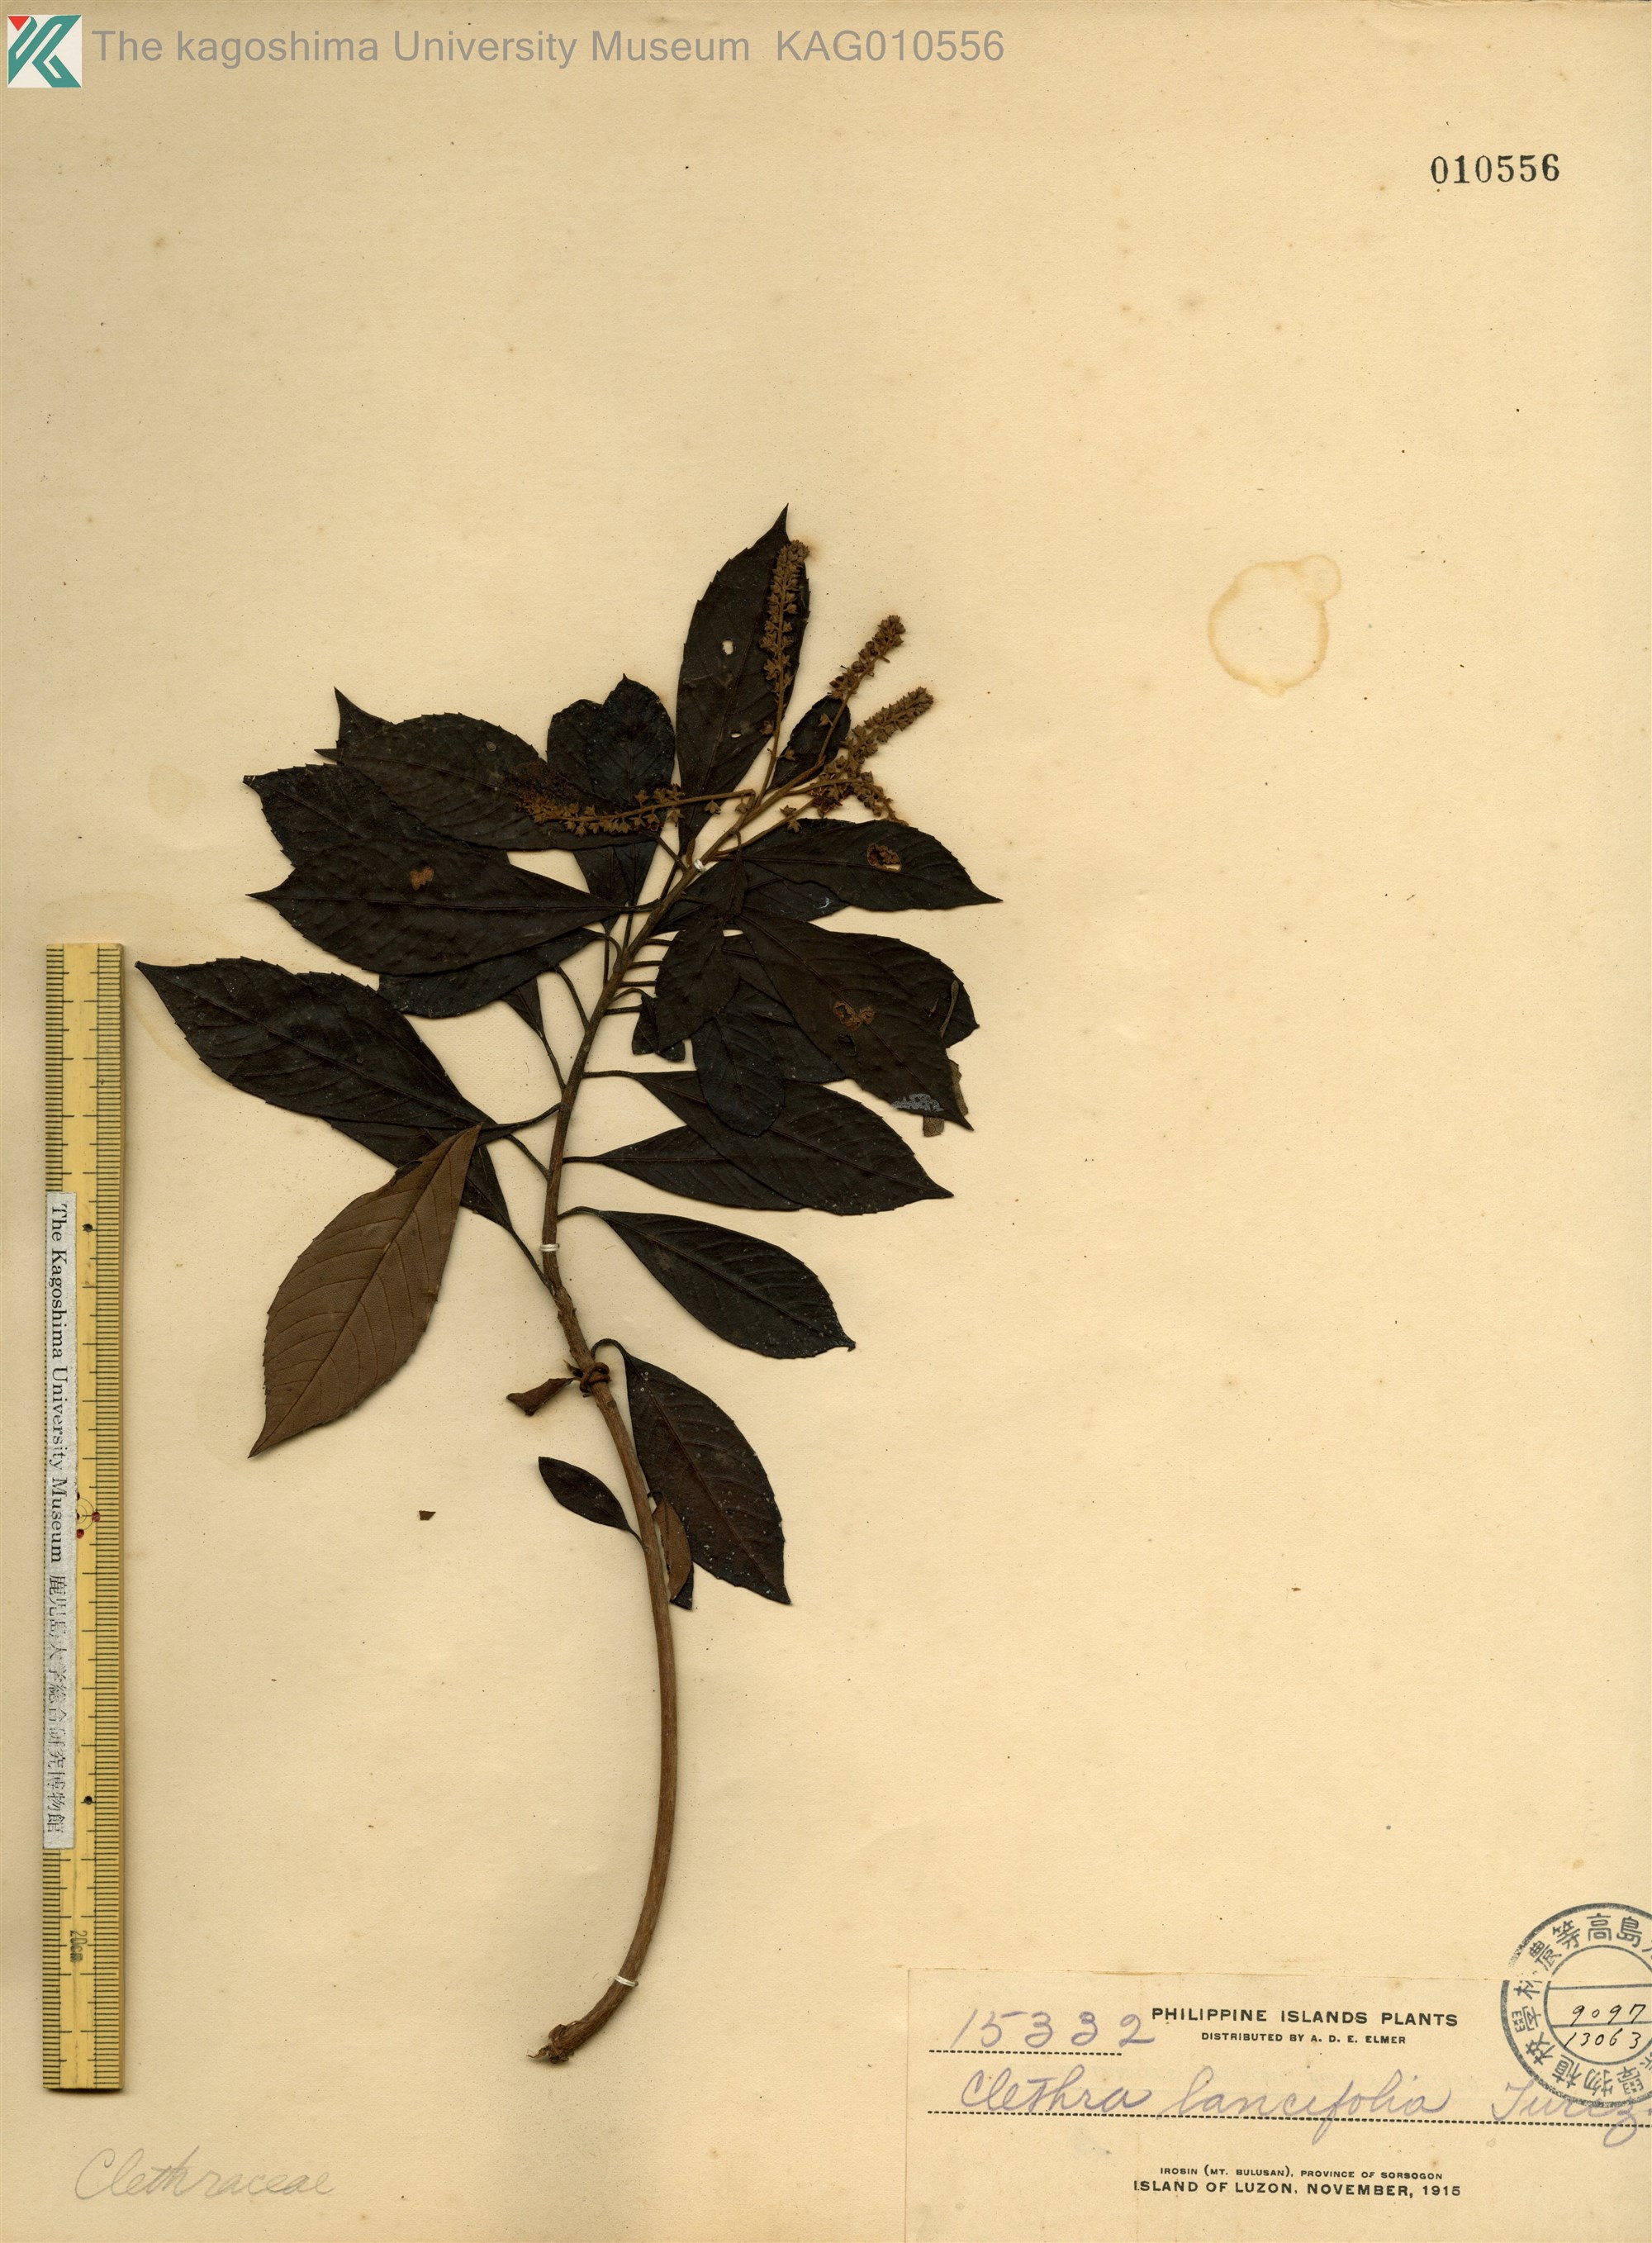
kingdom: Plantae
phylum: Tracheophyta
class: Magnoliopsida
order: Ericales
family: Clethraceae
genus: Clethra
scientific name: Clethra canescens
